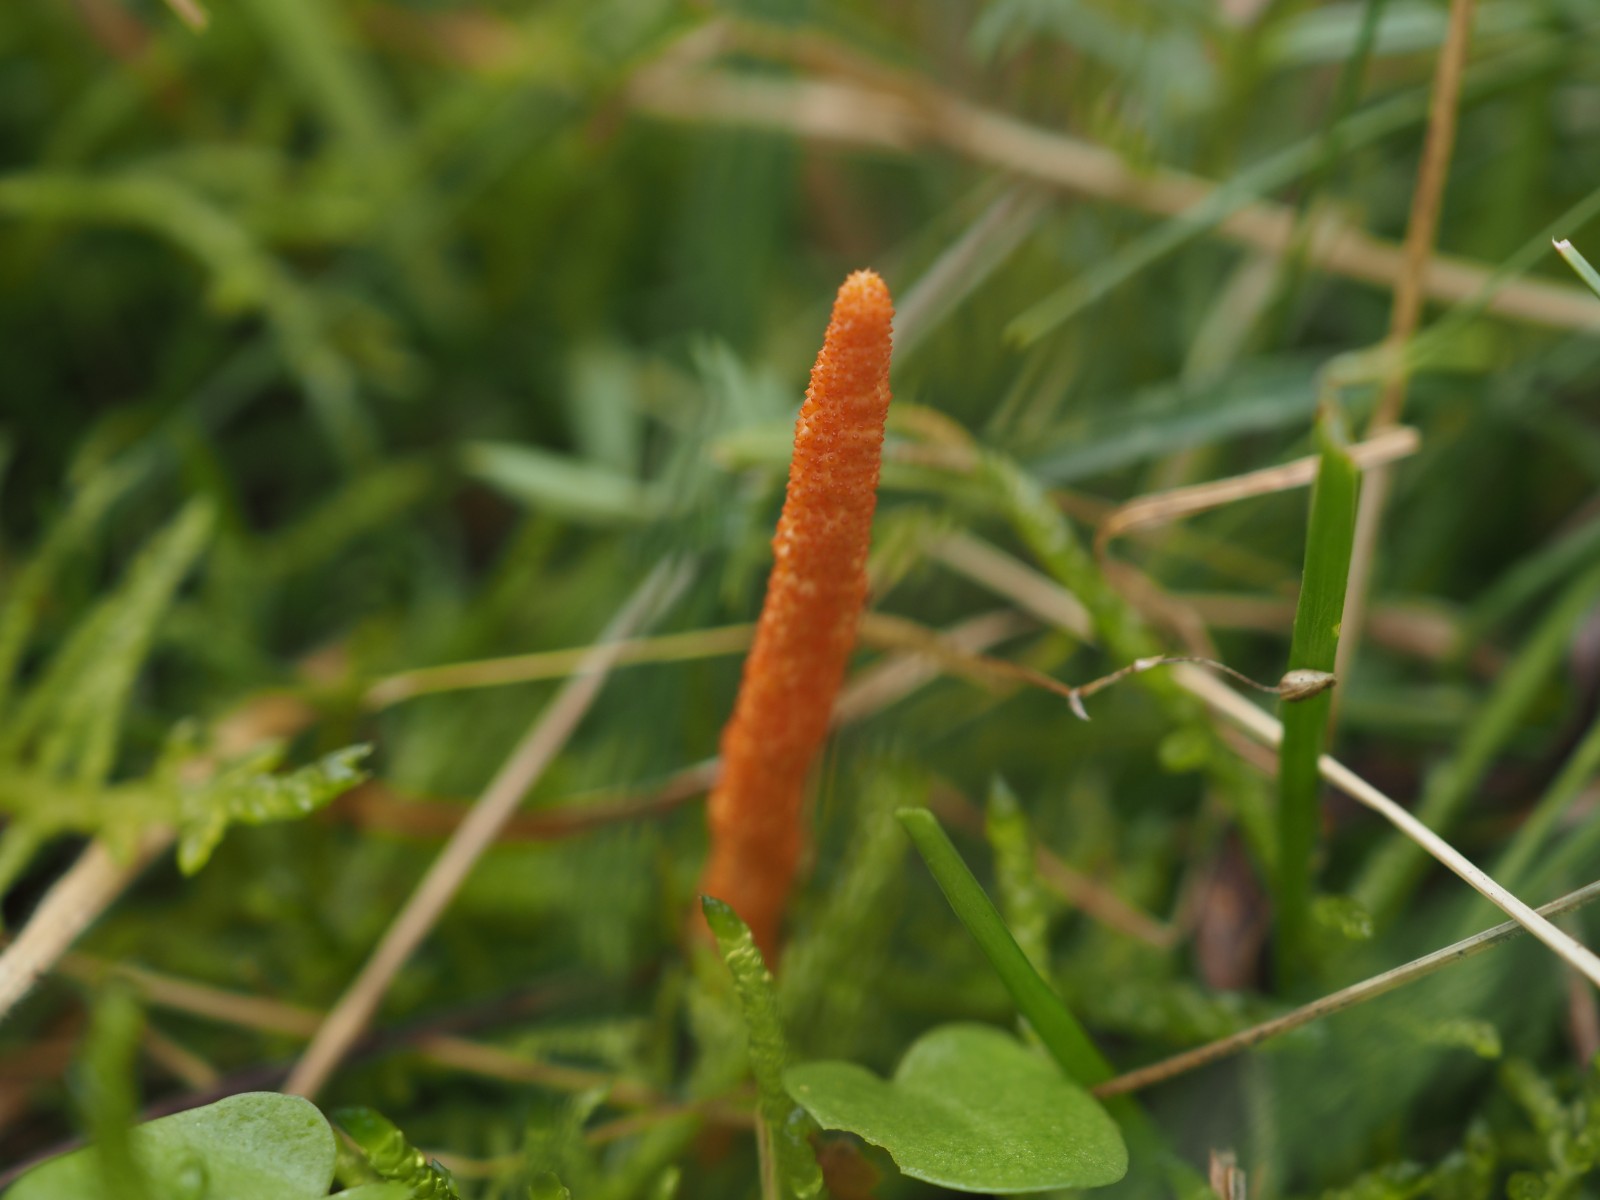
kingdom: Fungi
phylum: Ascomycota
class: Sordariomycetes
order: Hypocreales
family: Cordycipitaceae
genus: Cordyceps
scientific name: Cordyceps militaris
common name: puppe-snyltekølle
